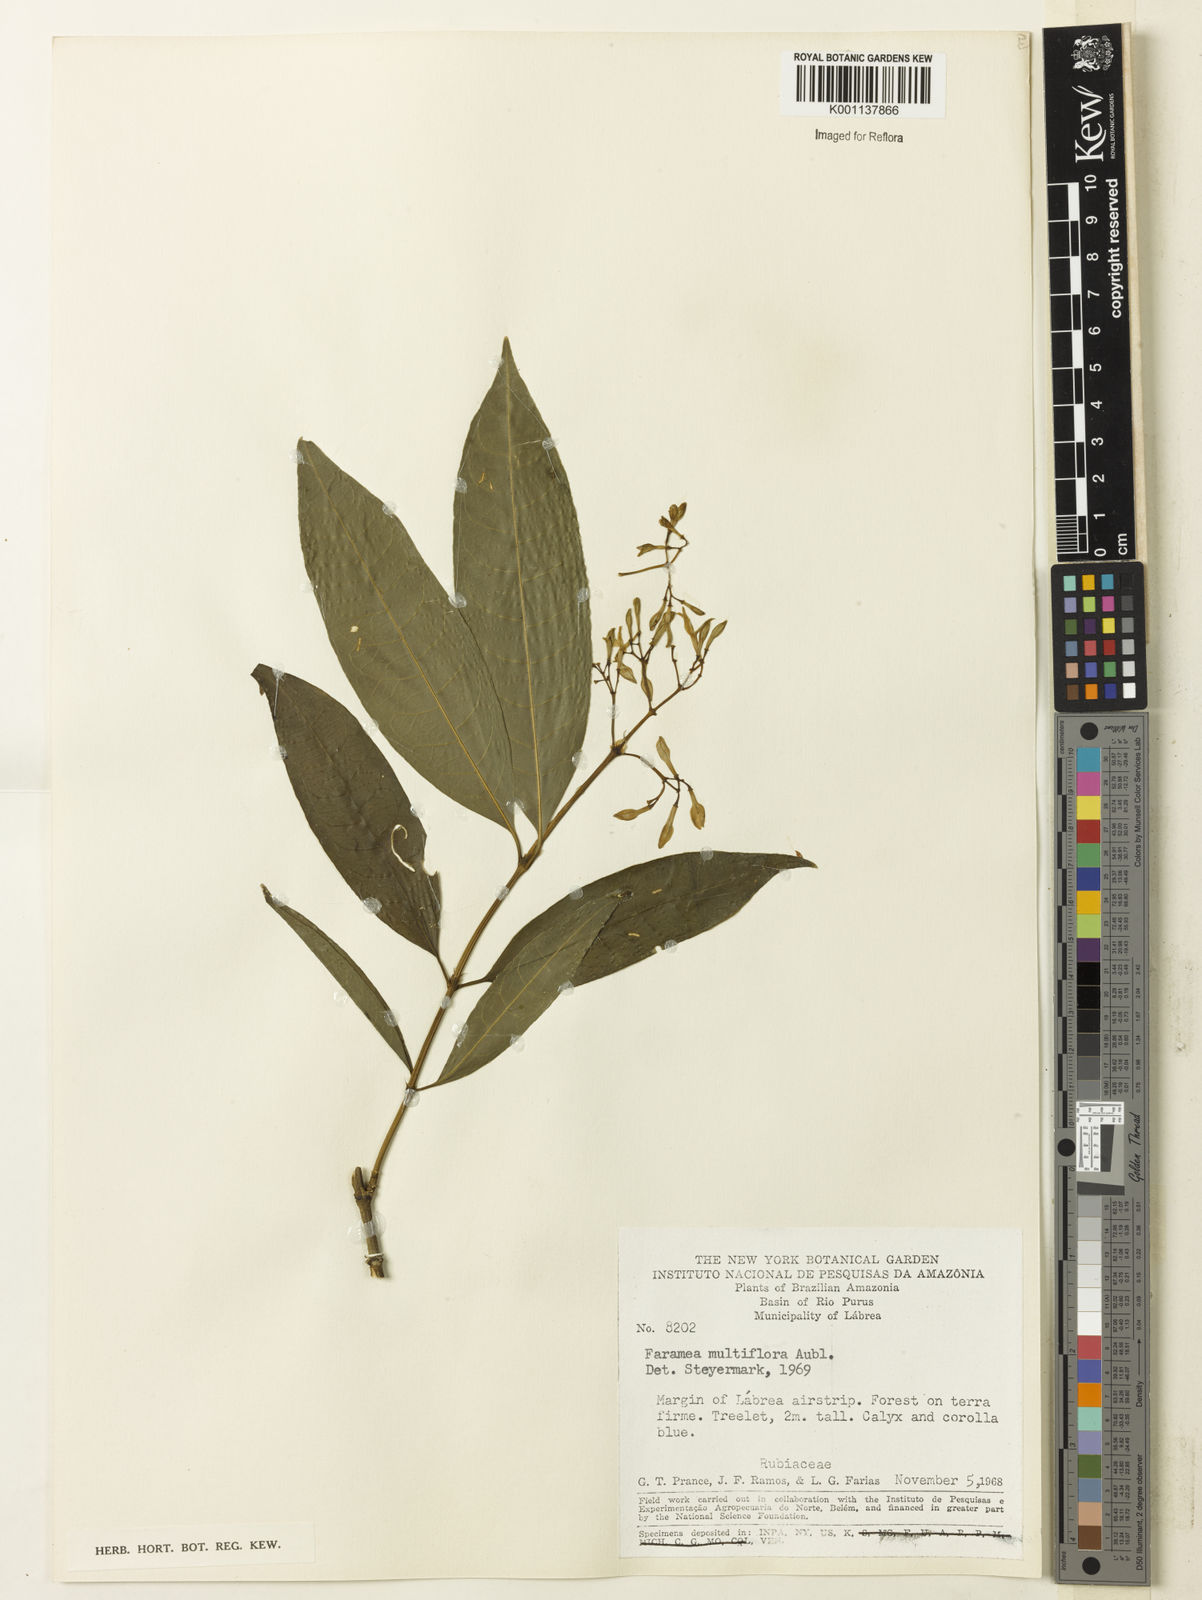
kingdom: Plantae
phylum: Tracheophyta
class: Magnoliopsida
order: Gentianales
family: Rubiaceae
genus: Faramea
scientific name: Faramea multiflora
